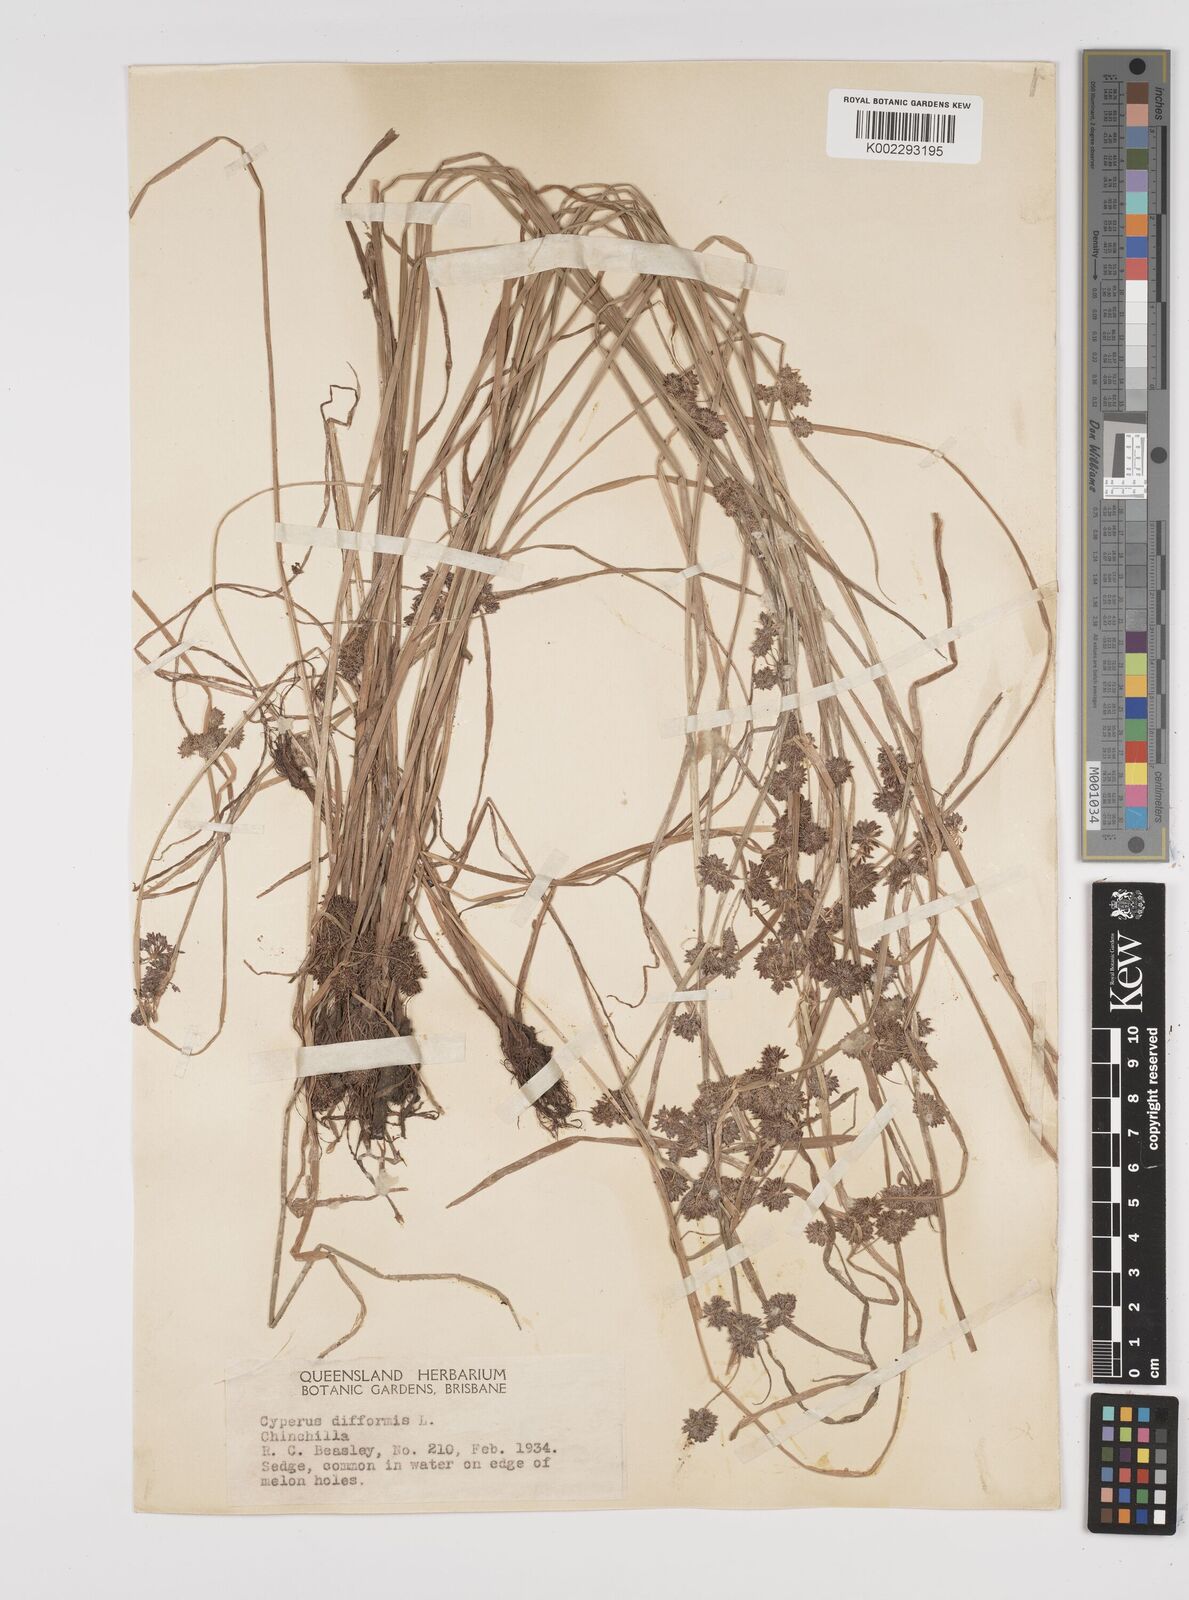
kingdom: Plantae
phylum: Tracheophyta
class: Liliopsida
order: Poales
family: Cyperaceae
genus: Cyperus
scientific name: Cyperus difformis
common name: Variable flatsedge
